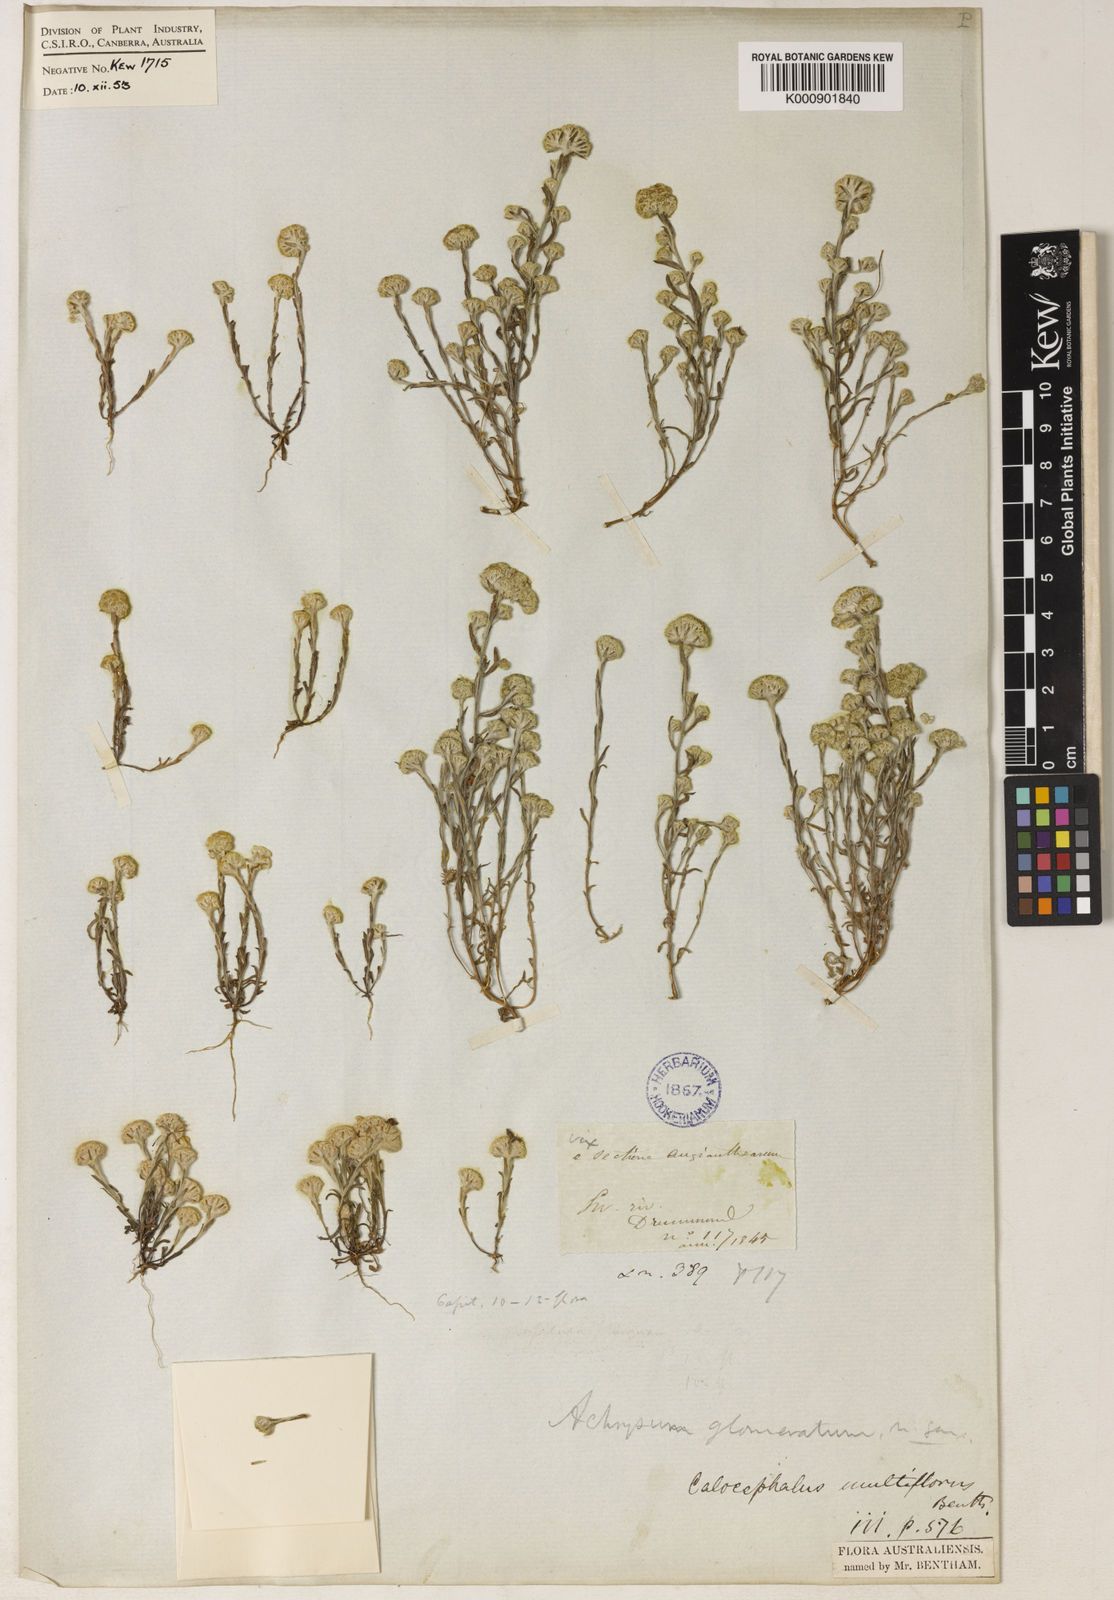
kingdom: Plantae
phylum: Tracheophyta
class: Magnoliopsida
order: Asterales
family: Asteraceae
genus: Calocephalus
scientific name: Calocephalus multiflorus
